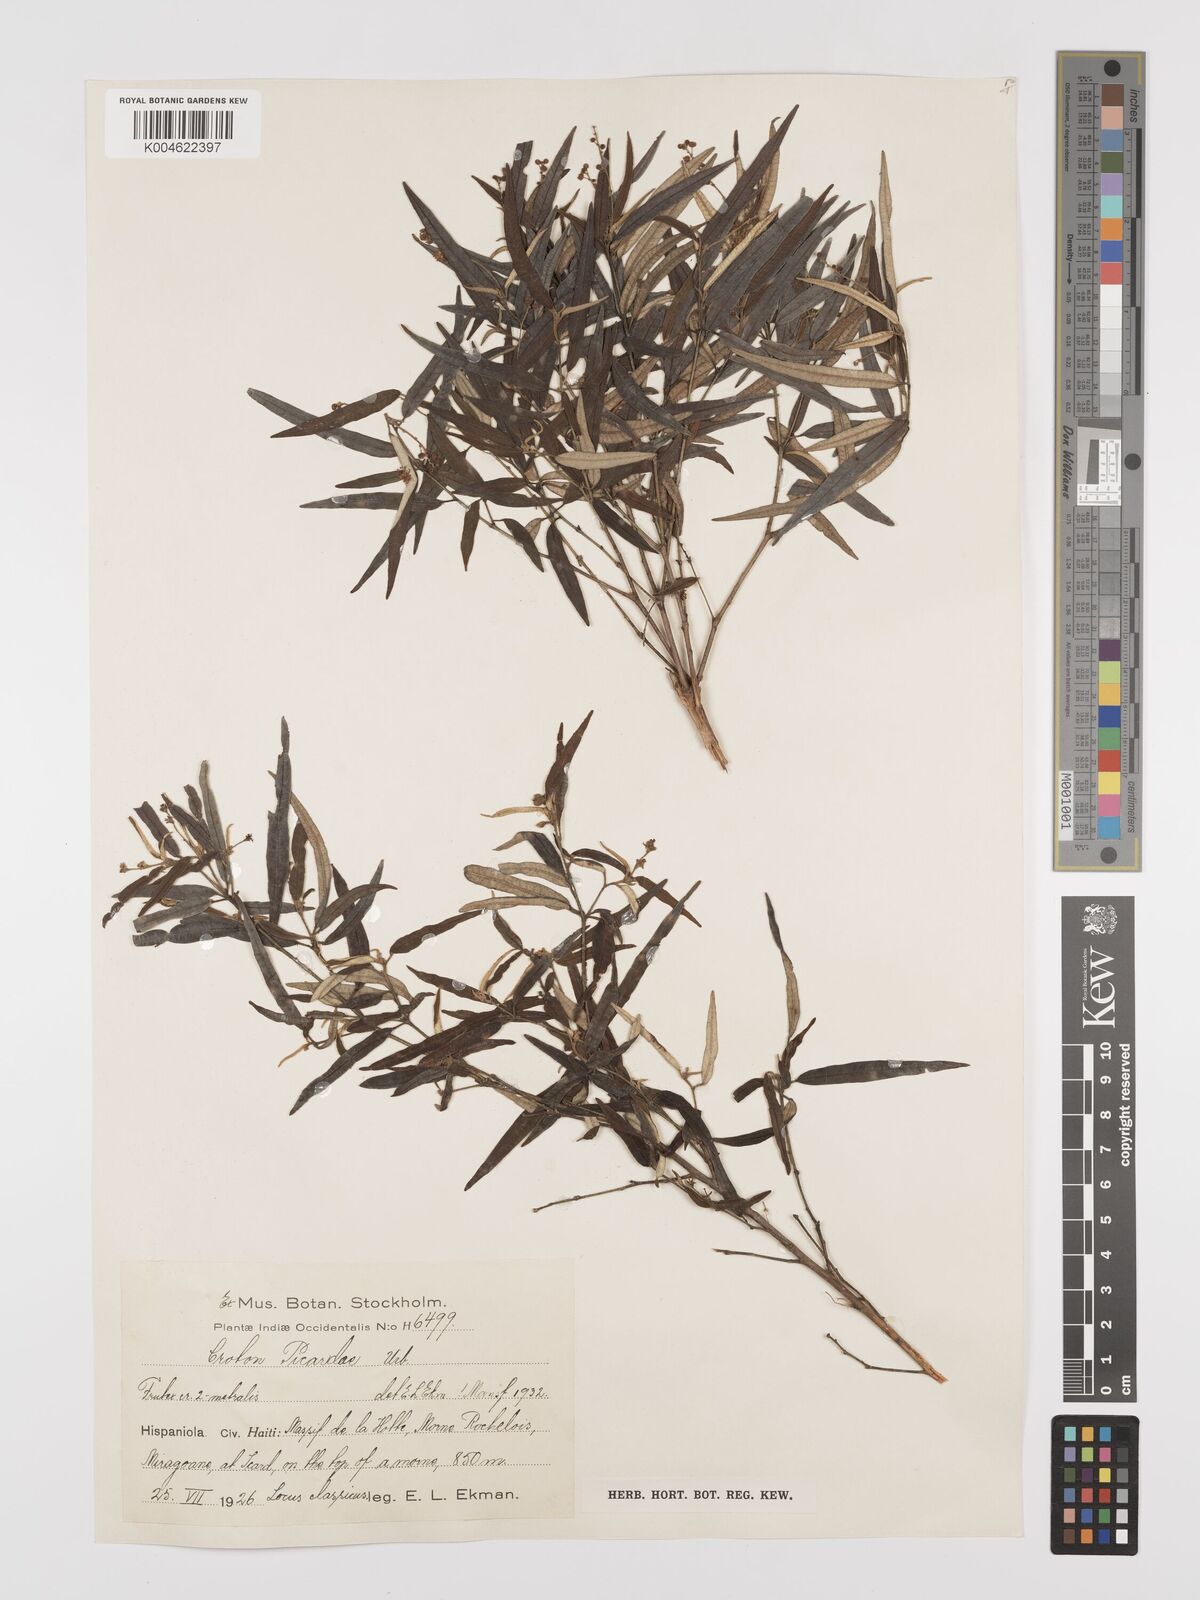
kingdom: Plantae
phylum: Tracheophyta
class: Magnoliopsida
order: Malpighiales
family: Euphorbiaceae
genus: Croton
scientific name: Croton linearis
